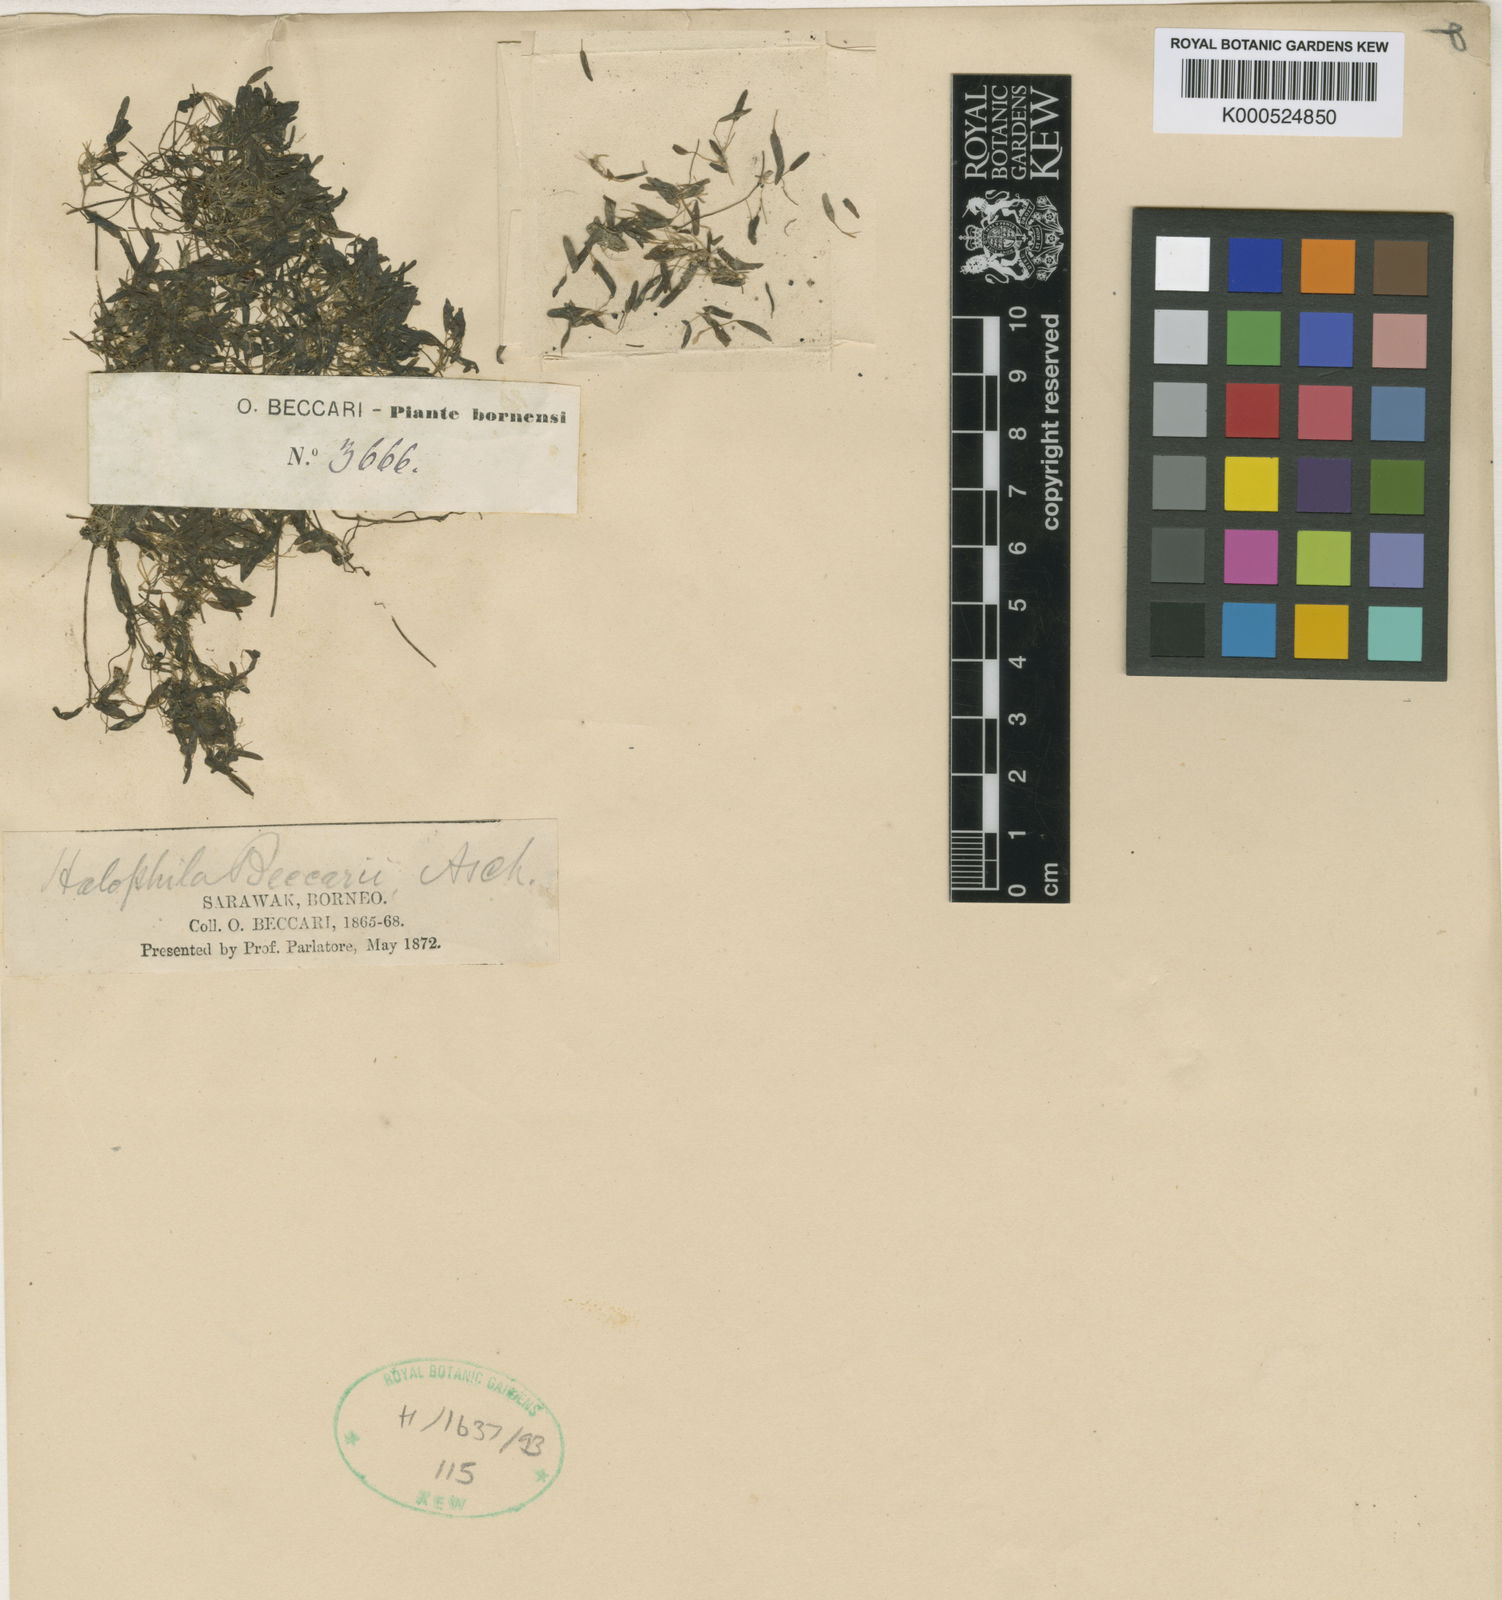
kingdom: Plantae
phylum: Tracheophyta
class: Liliopsida
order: Alismatales
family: Hydrocharitaceae
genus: Halophila
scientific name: Halophila beccarii
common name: Ocean turf grass
